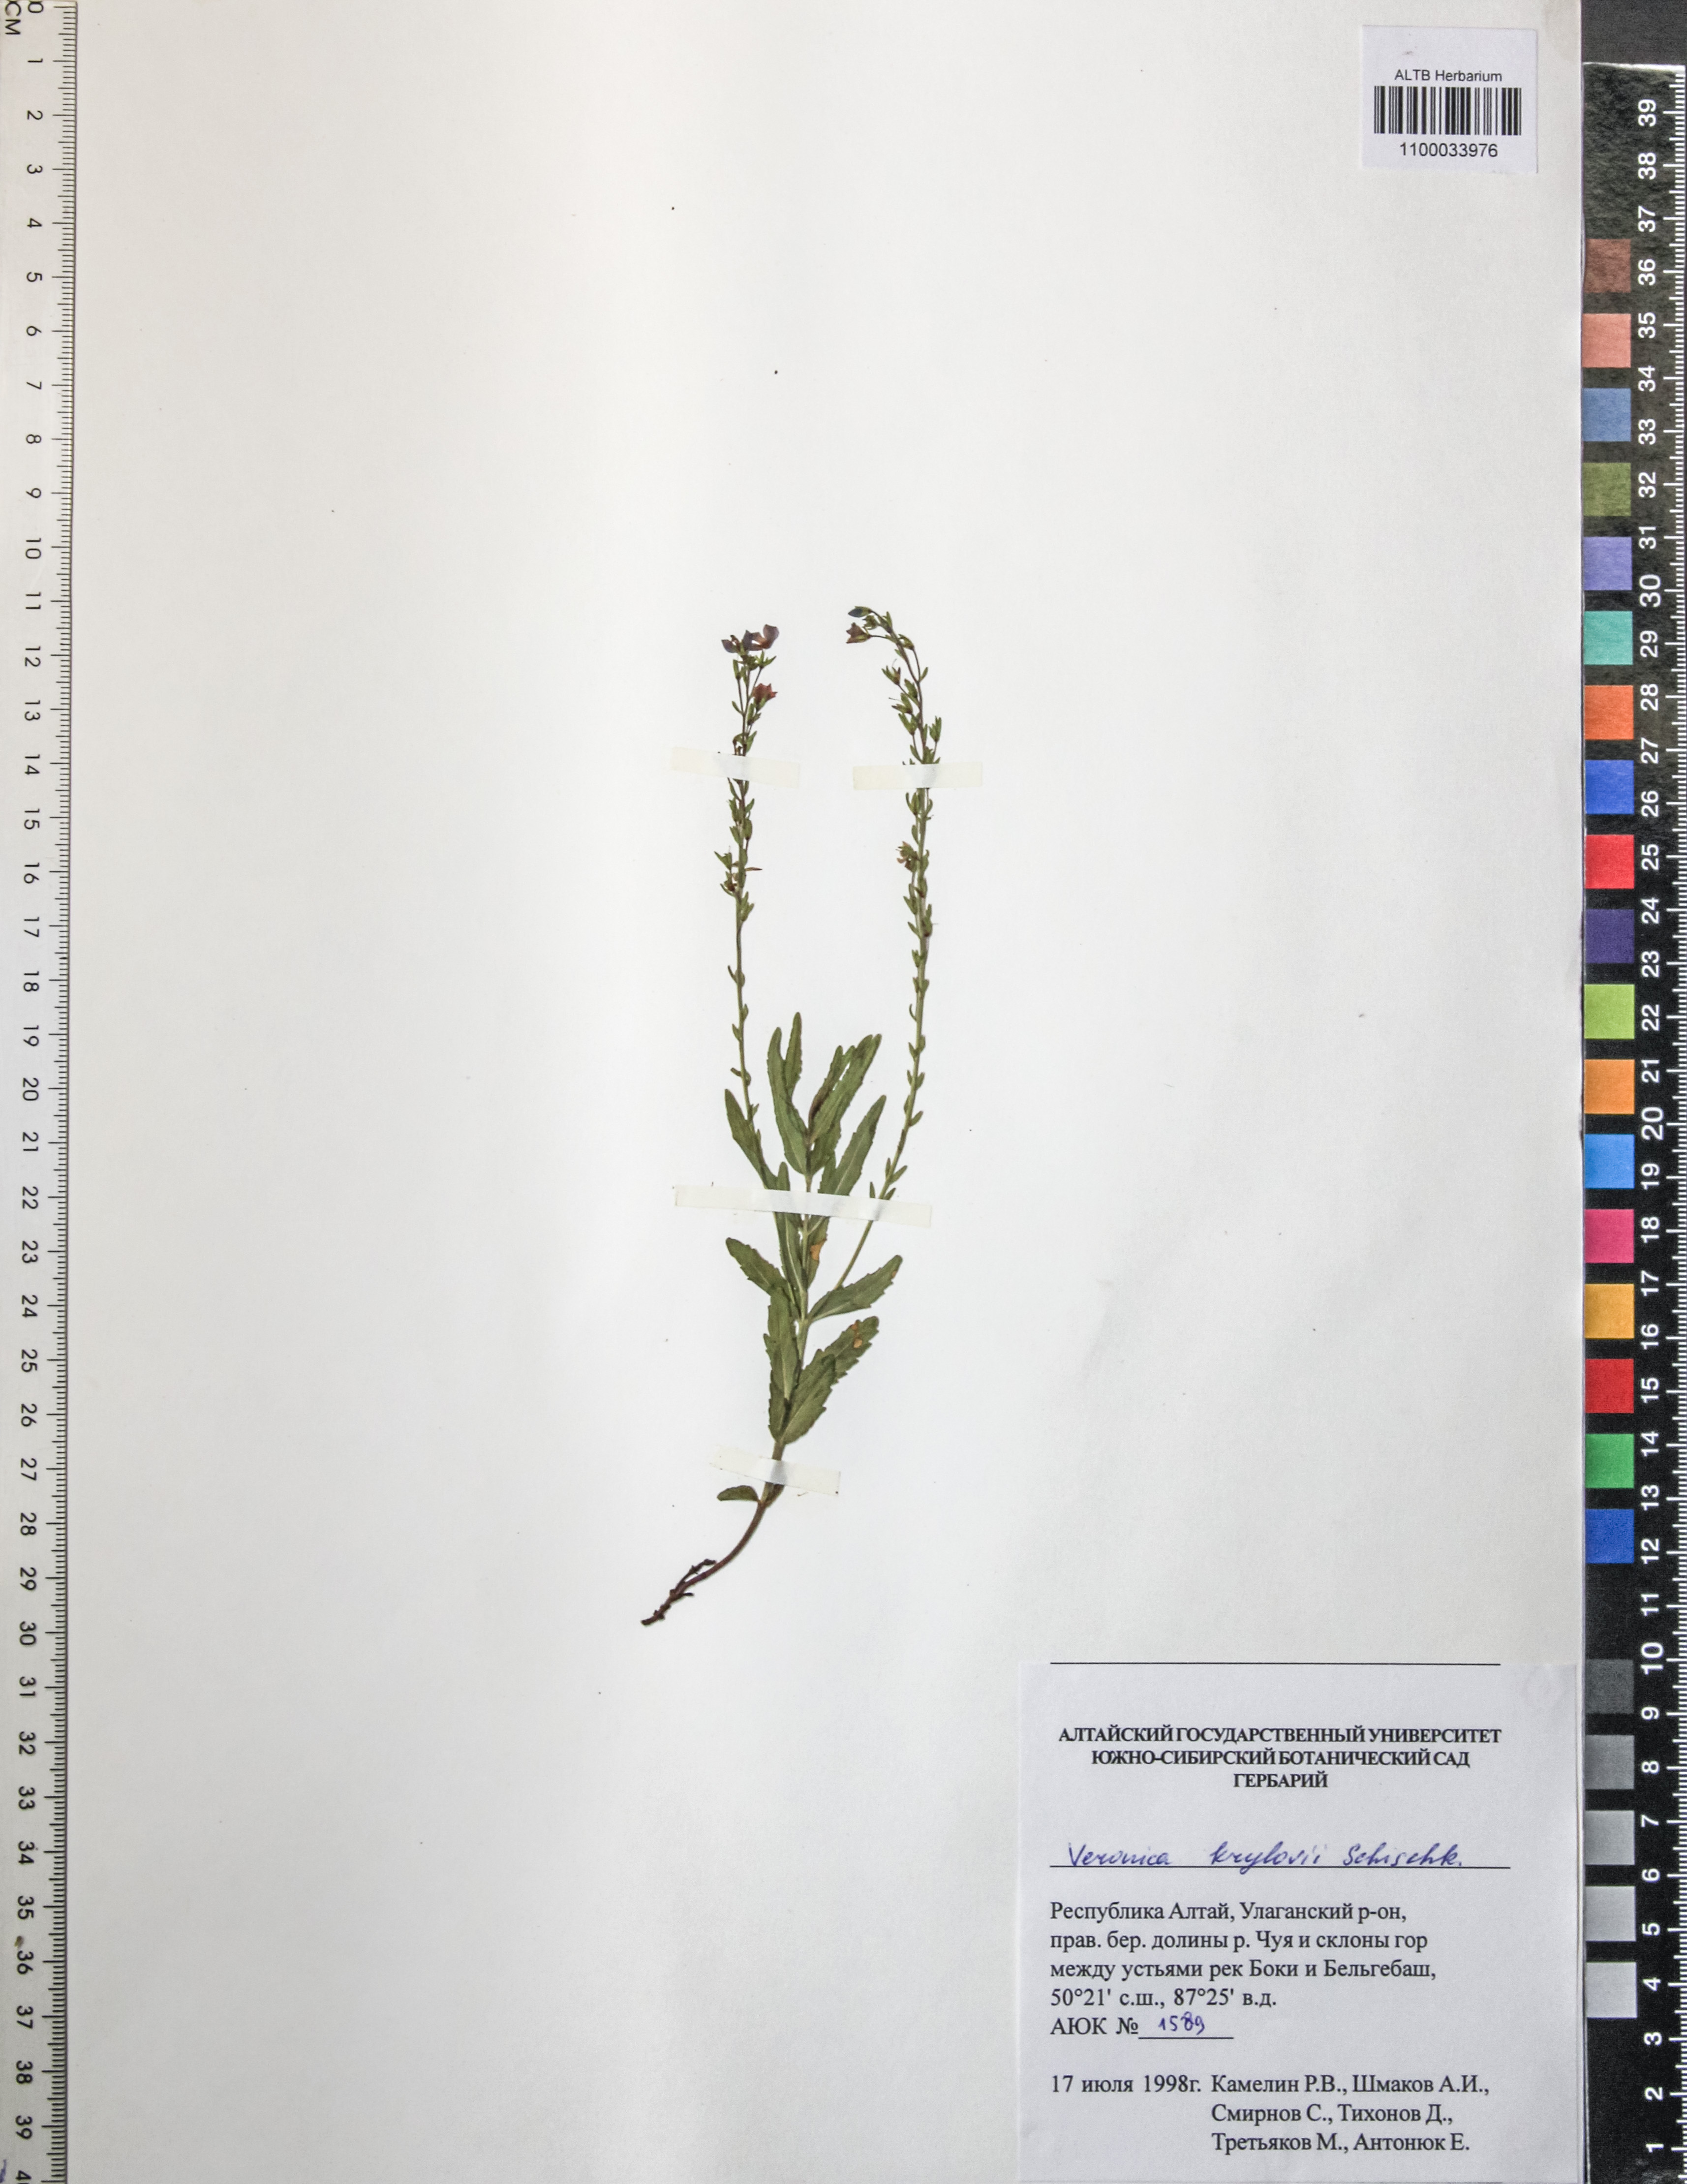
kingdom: Plantae
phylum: Tracheophyta
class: Magnoliopsida
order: Lamiales
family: Plantaginaceae
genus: Veronica
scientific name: Veronica serpyllifolia
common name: Thyme-leaved speedwell
